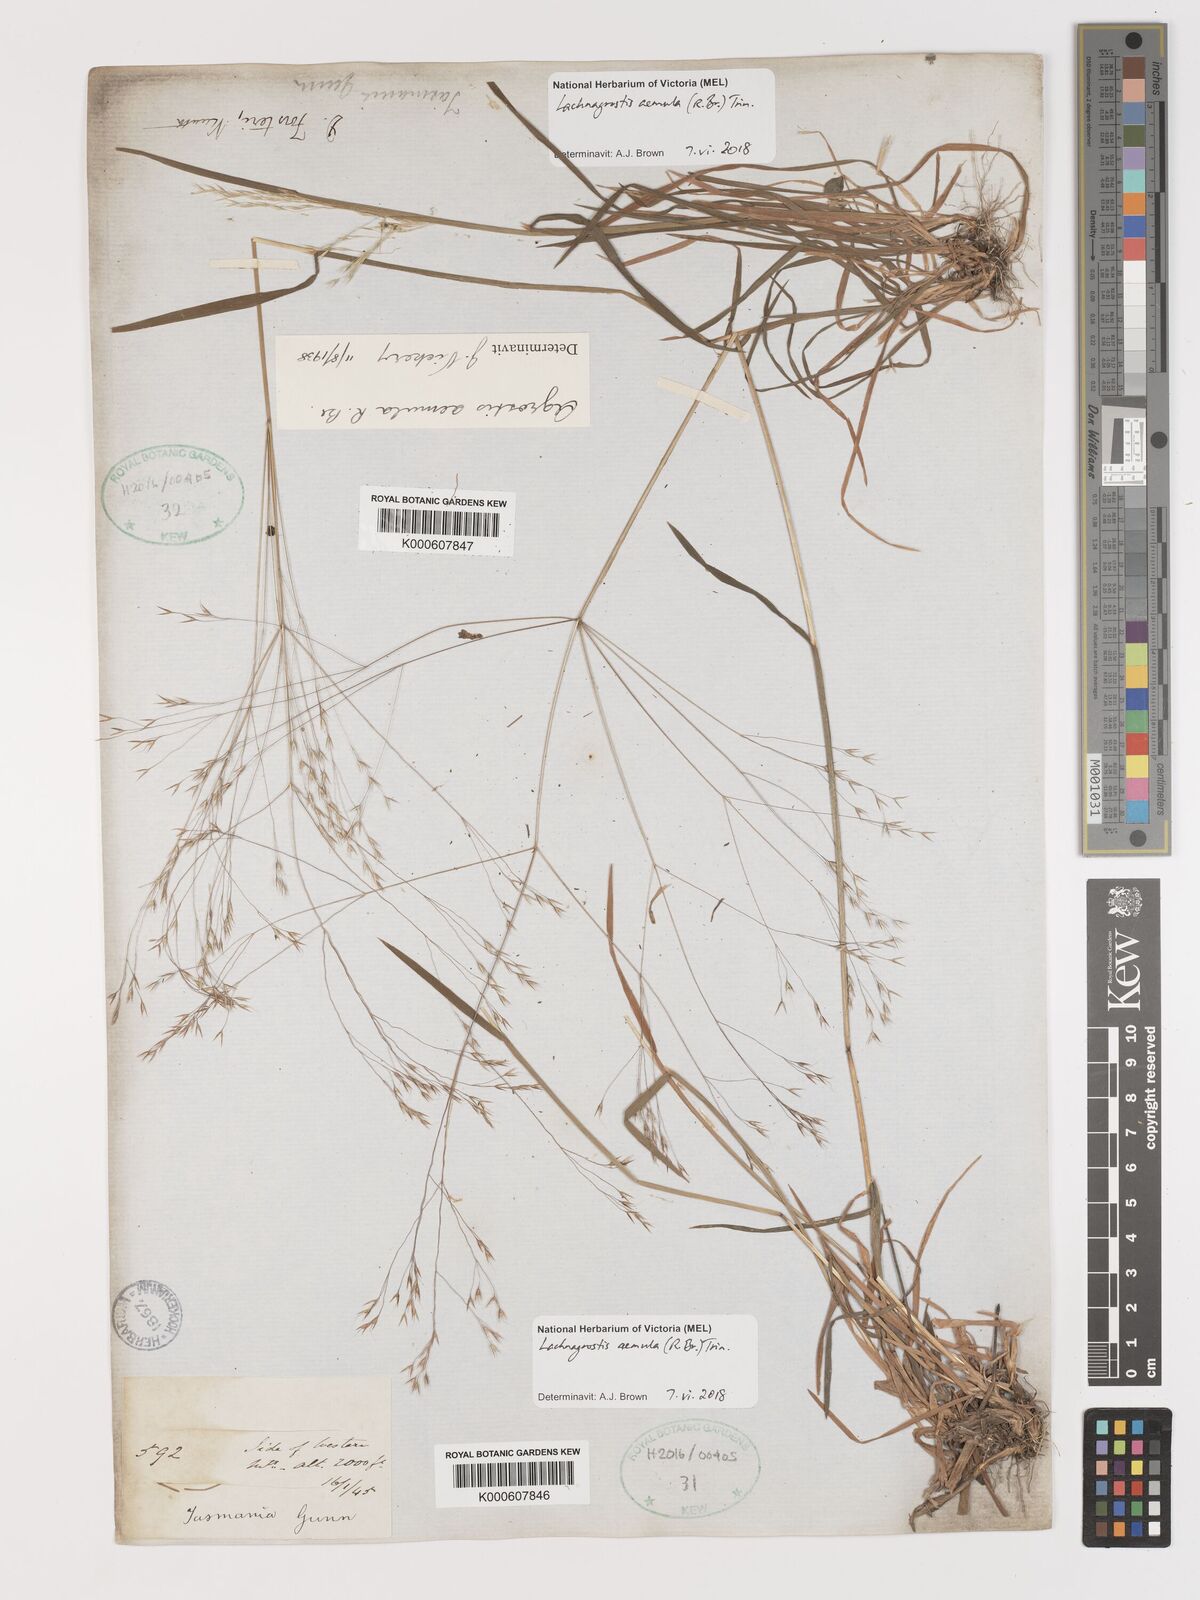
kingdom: Plantae
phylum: Tracheophyta
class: Liliopsida
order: Poales
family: Poaceae
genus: Lachnagrostis
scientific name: Lachnagrostis aemula
